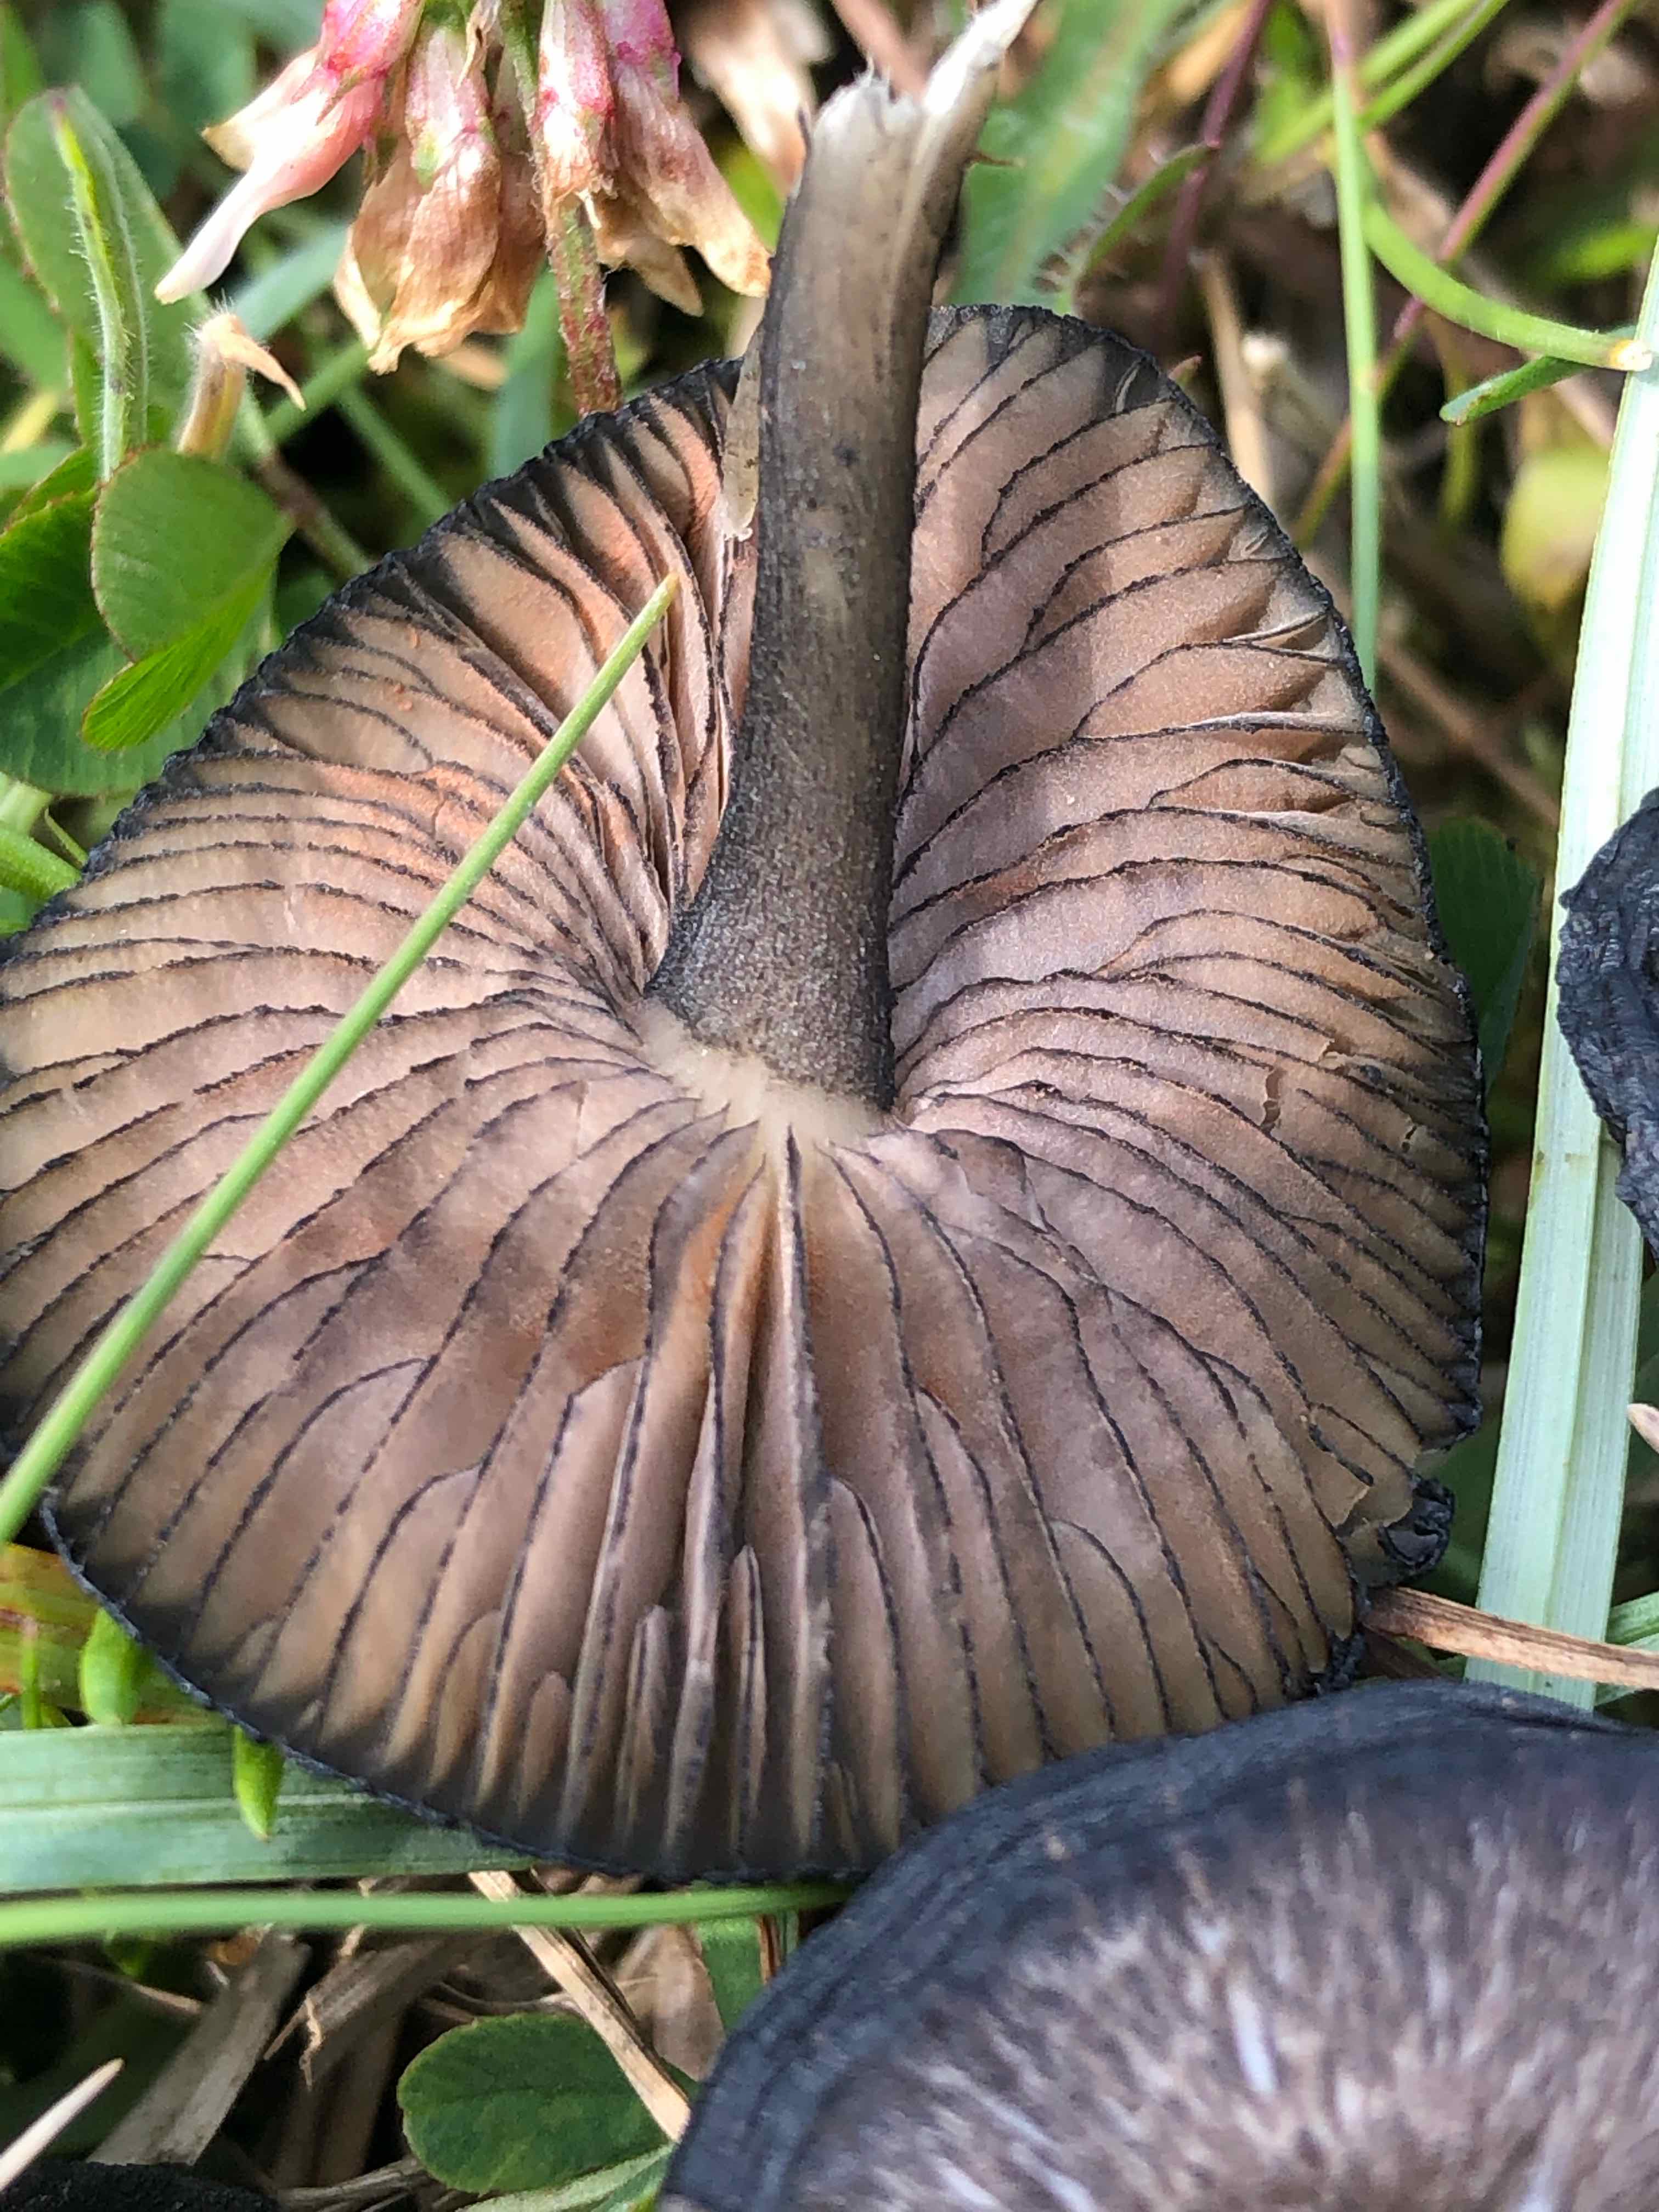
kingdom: Fungi
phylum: Basidiomycota
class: Agaricomycetes
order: Agaricales
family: Entolomataceae
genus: Entoloma
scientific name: Entoloma
